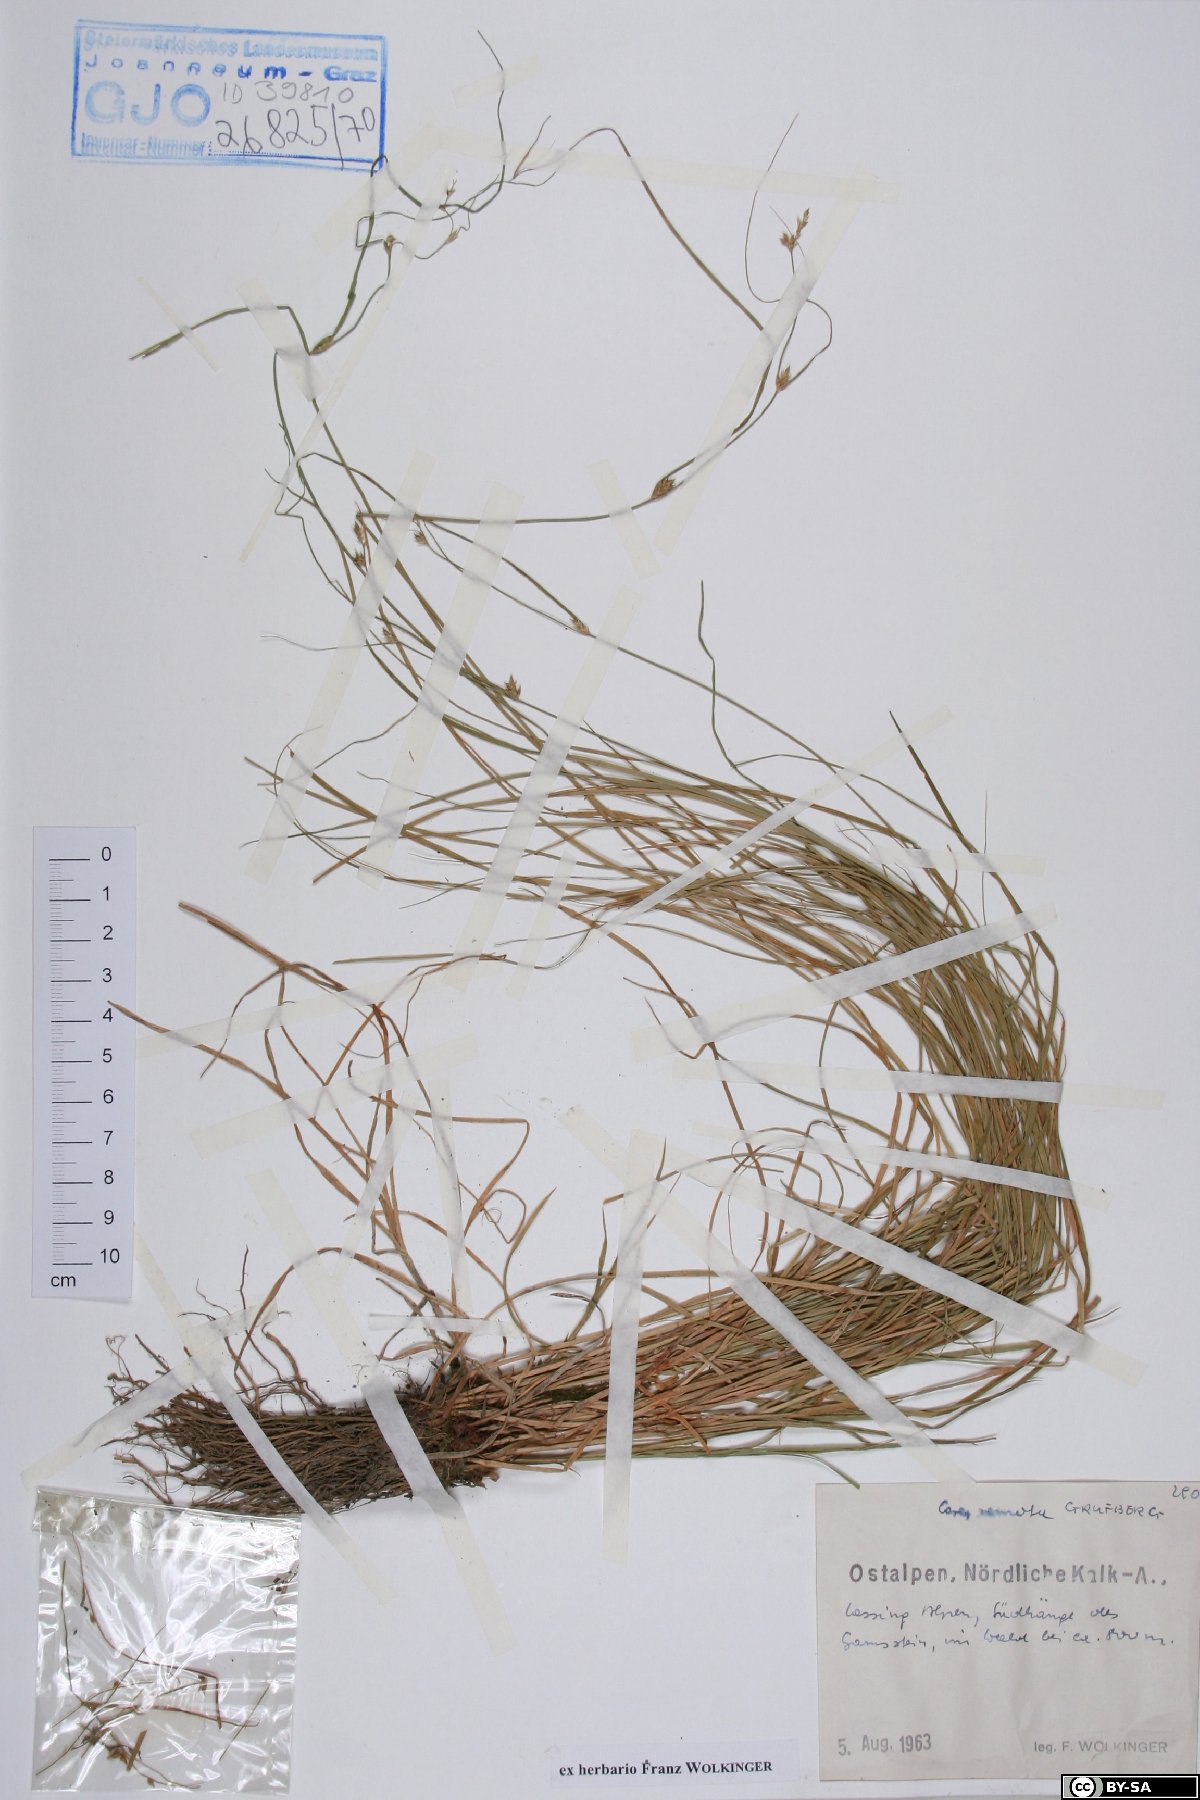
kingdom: Plantae
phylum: Tracheophyta
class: Liliopsida
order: Poales
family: Cyperaceae
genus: Carex
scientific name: Carex remota
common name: Remote sedge
